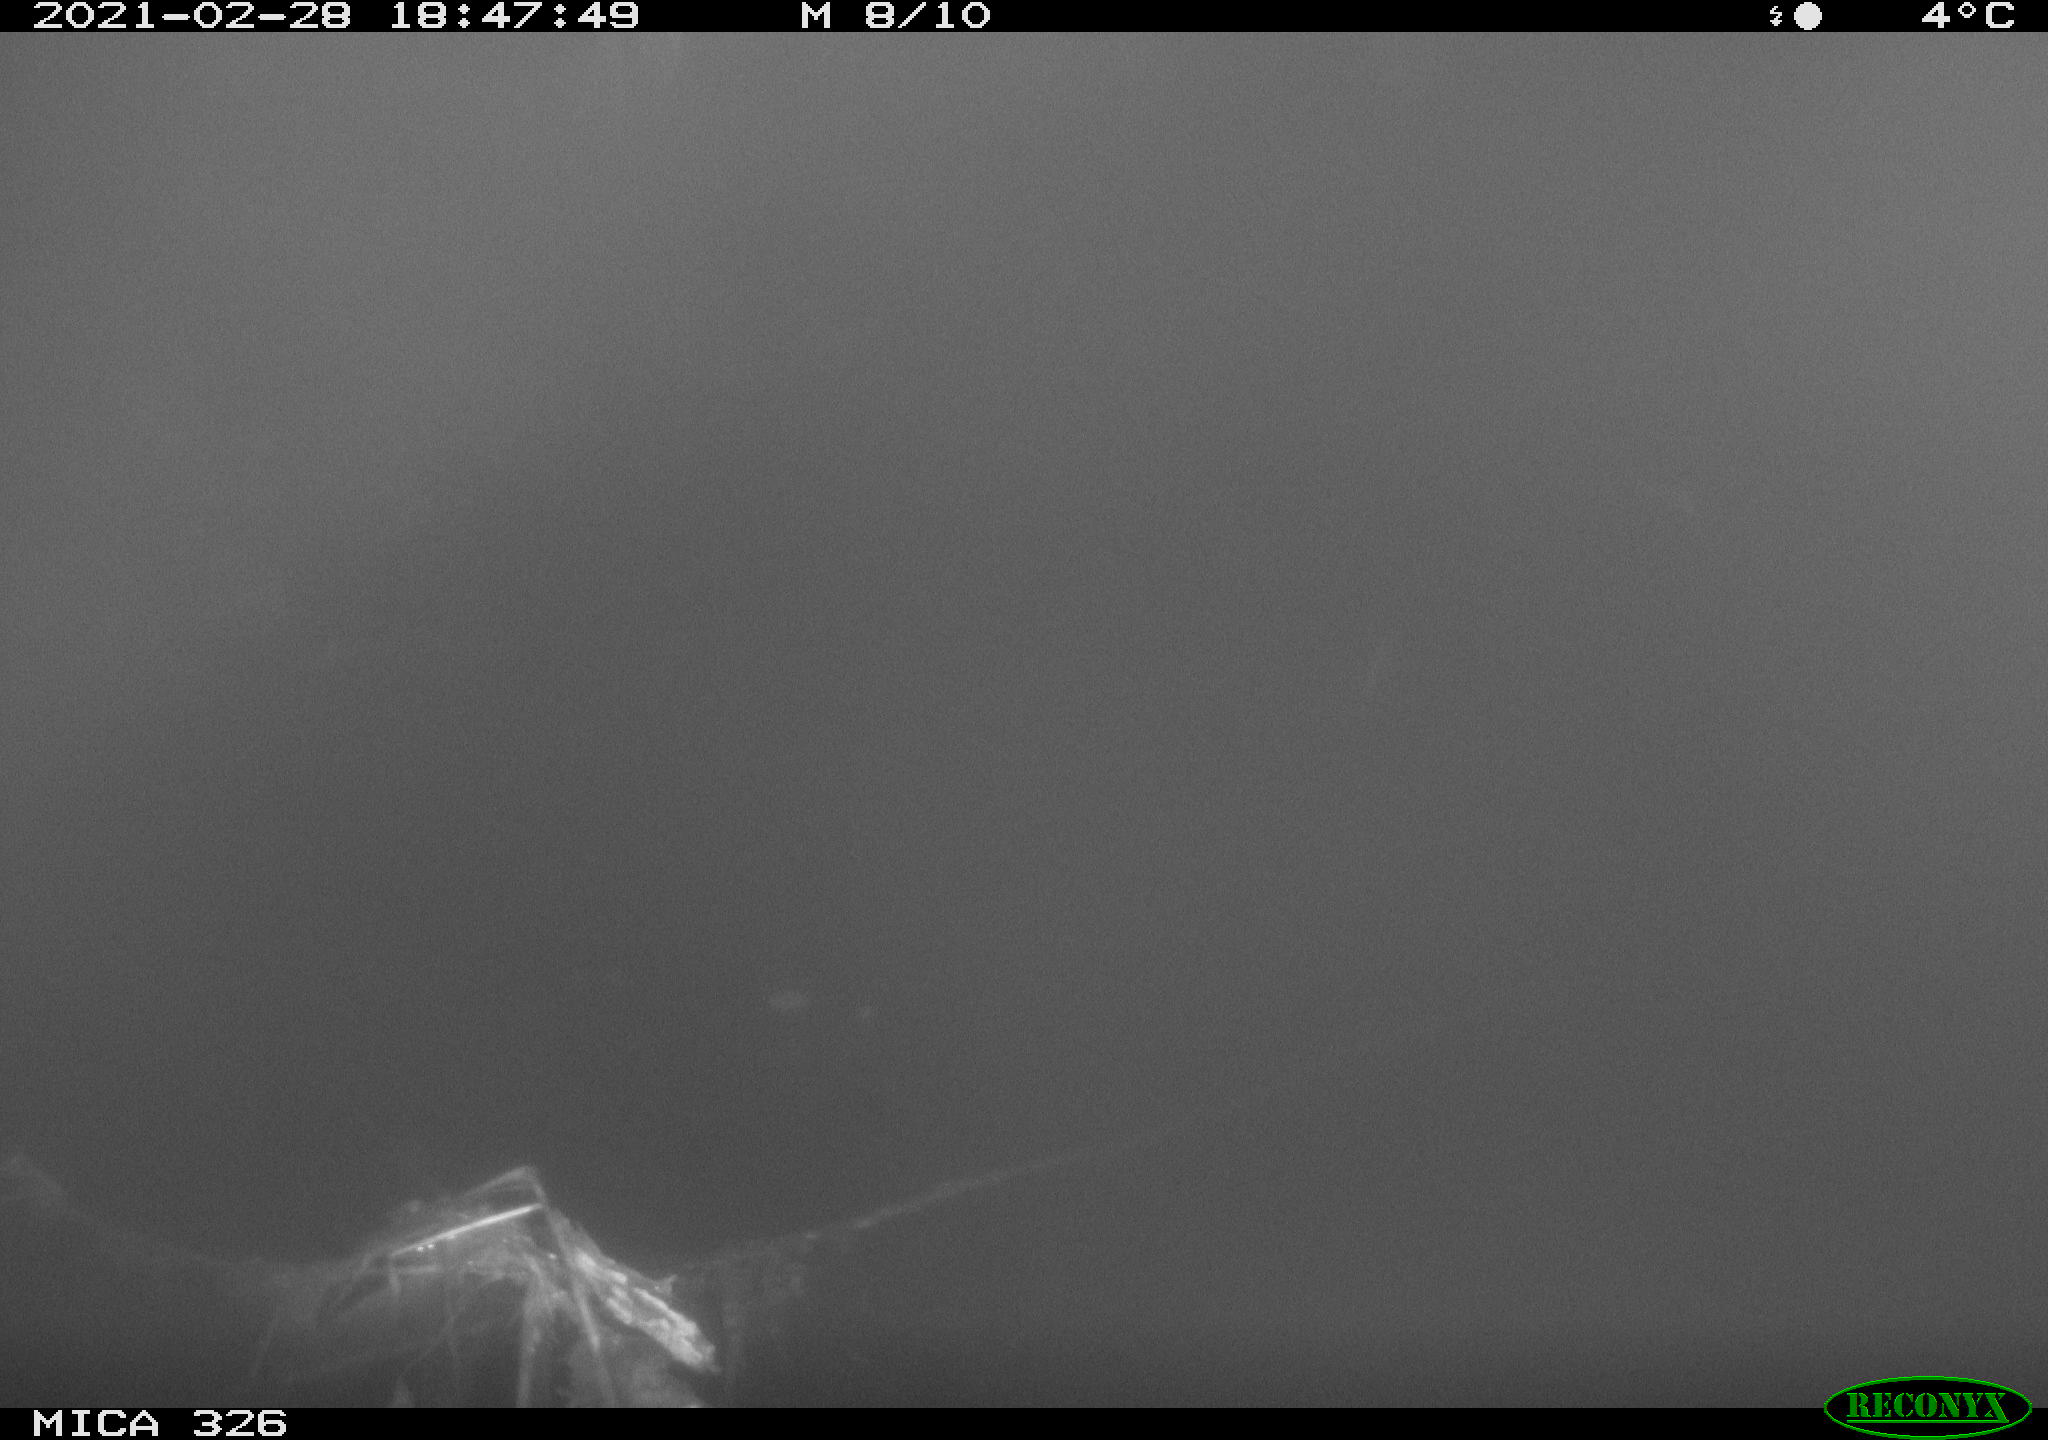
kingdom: Animalia
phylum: Chordata
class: Mammalia
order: Rodentia
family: Cricetidae
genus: Ondatra
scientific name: Ondatra zibethicus
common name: Muskrat
